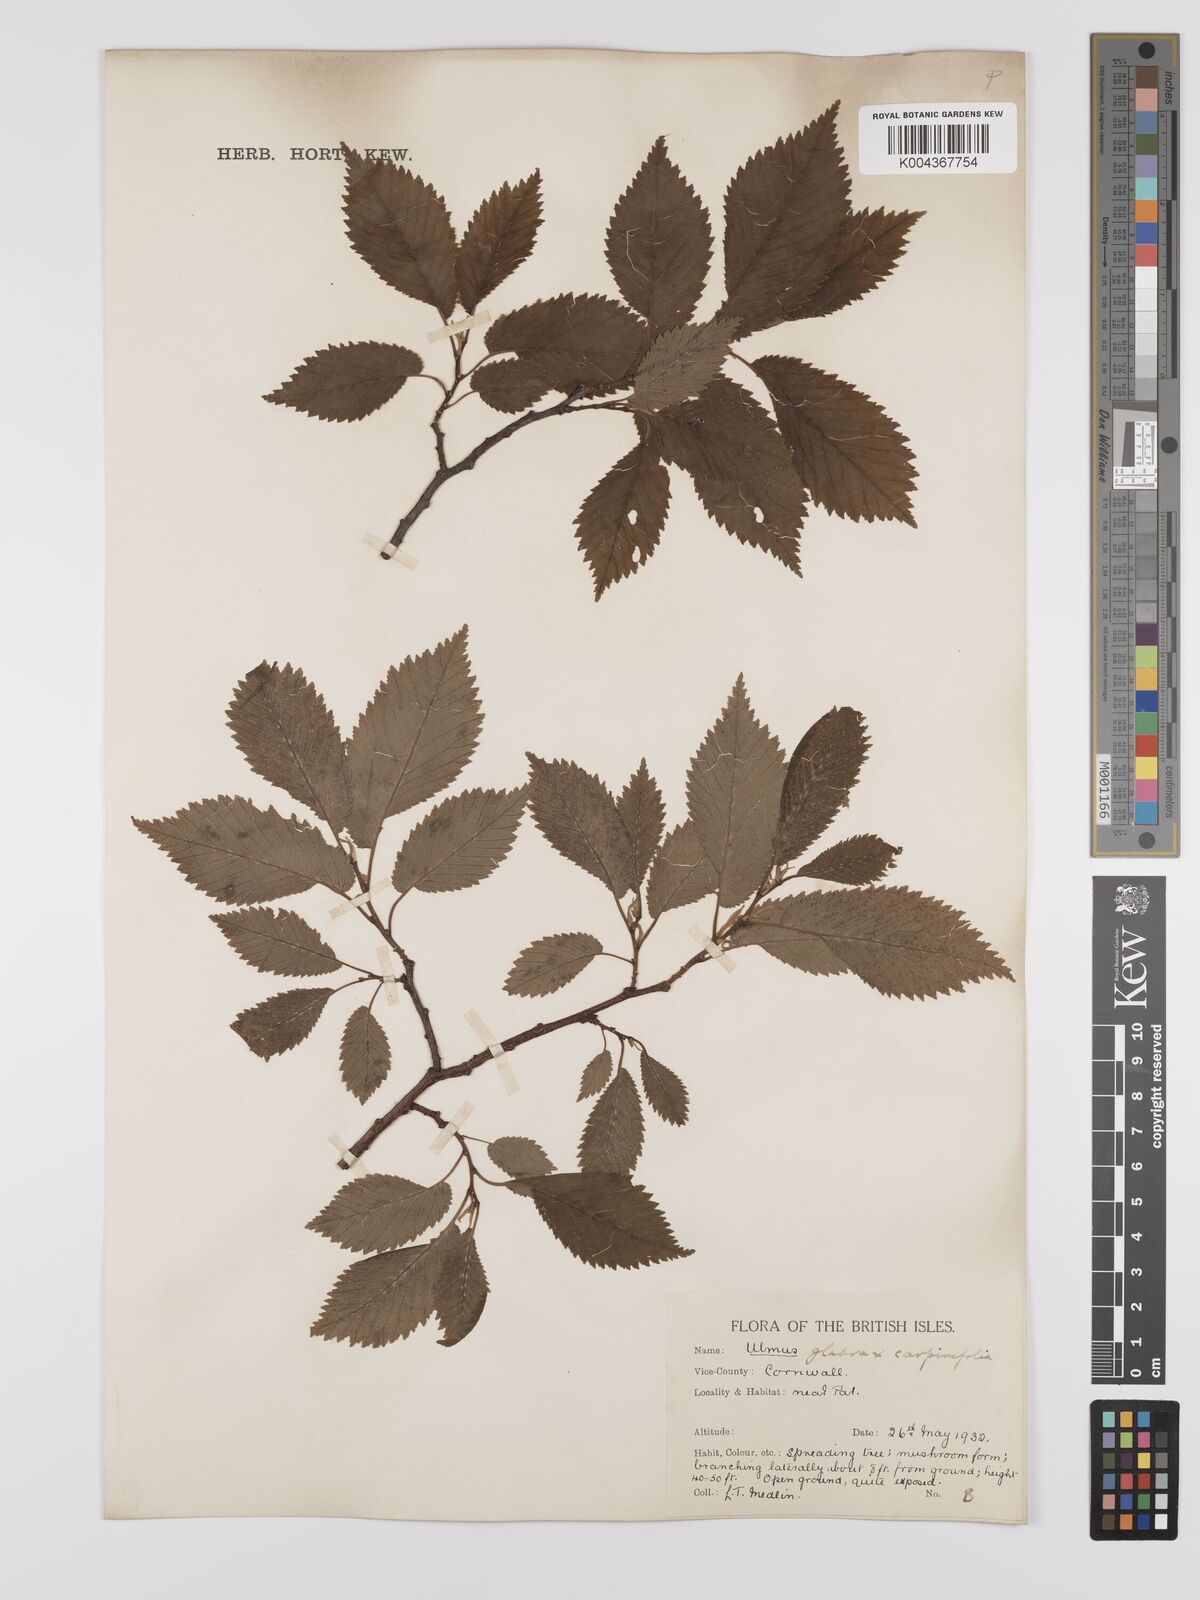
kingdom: Plantae
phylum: Tracheophyta
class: Magnoliopsida
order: Rosales
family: Ulmaceae
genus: Ulmus
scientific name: Ulmus minor
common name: Small-leaved elm
